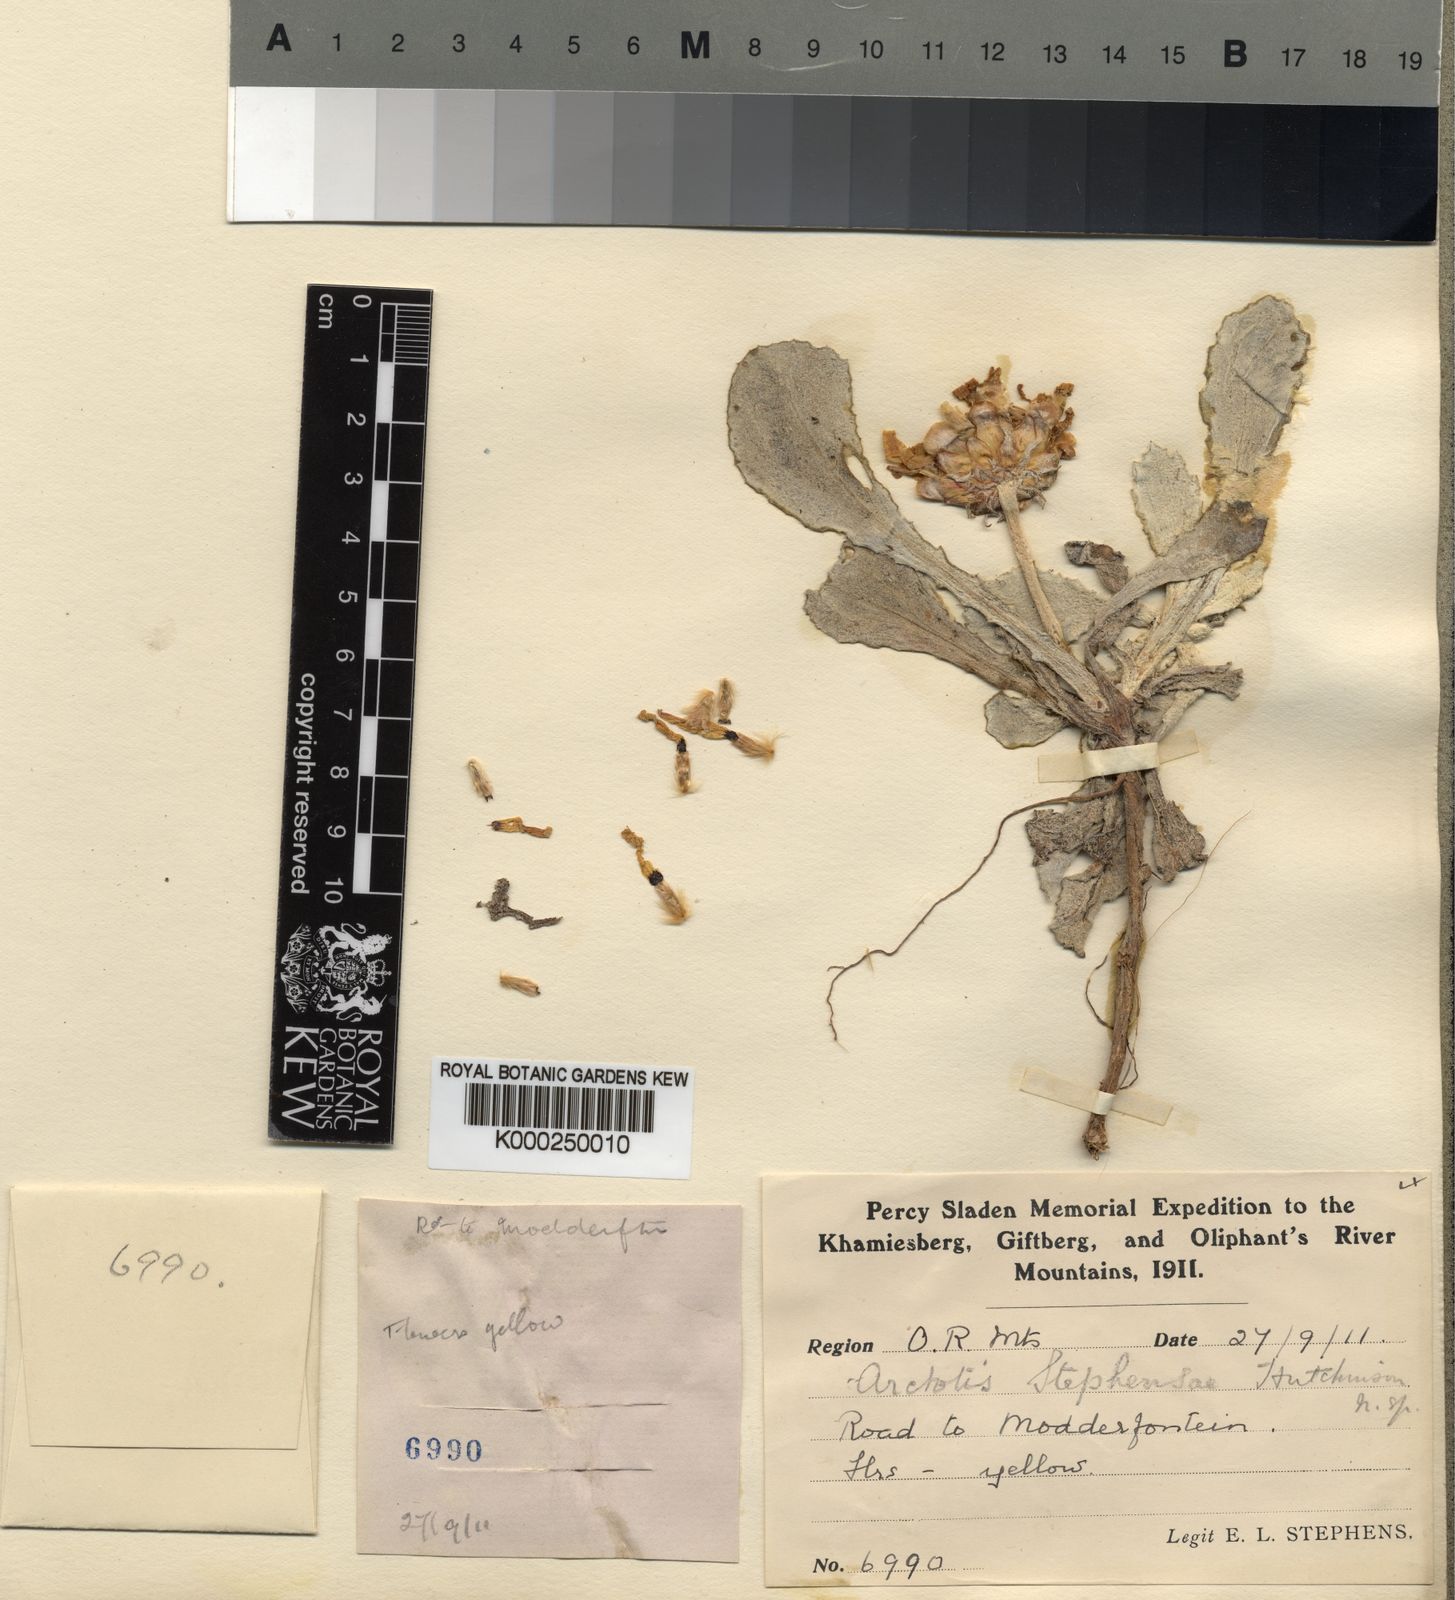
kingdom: Plantae
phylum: Tracheophyta
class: Magnoliopsida
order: Asterales
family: Asteraceae
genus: Arctotis
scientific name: Arctotis bellidifolia
